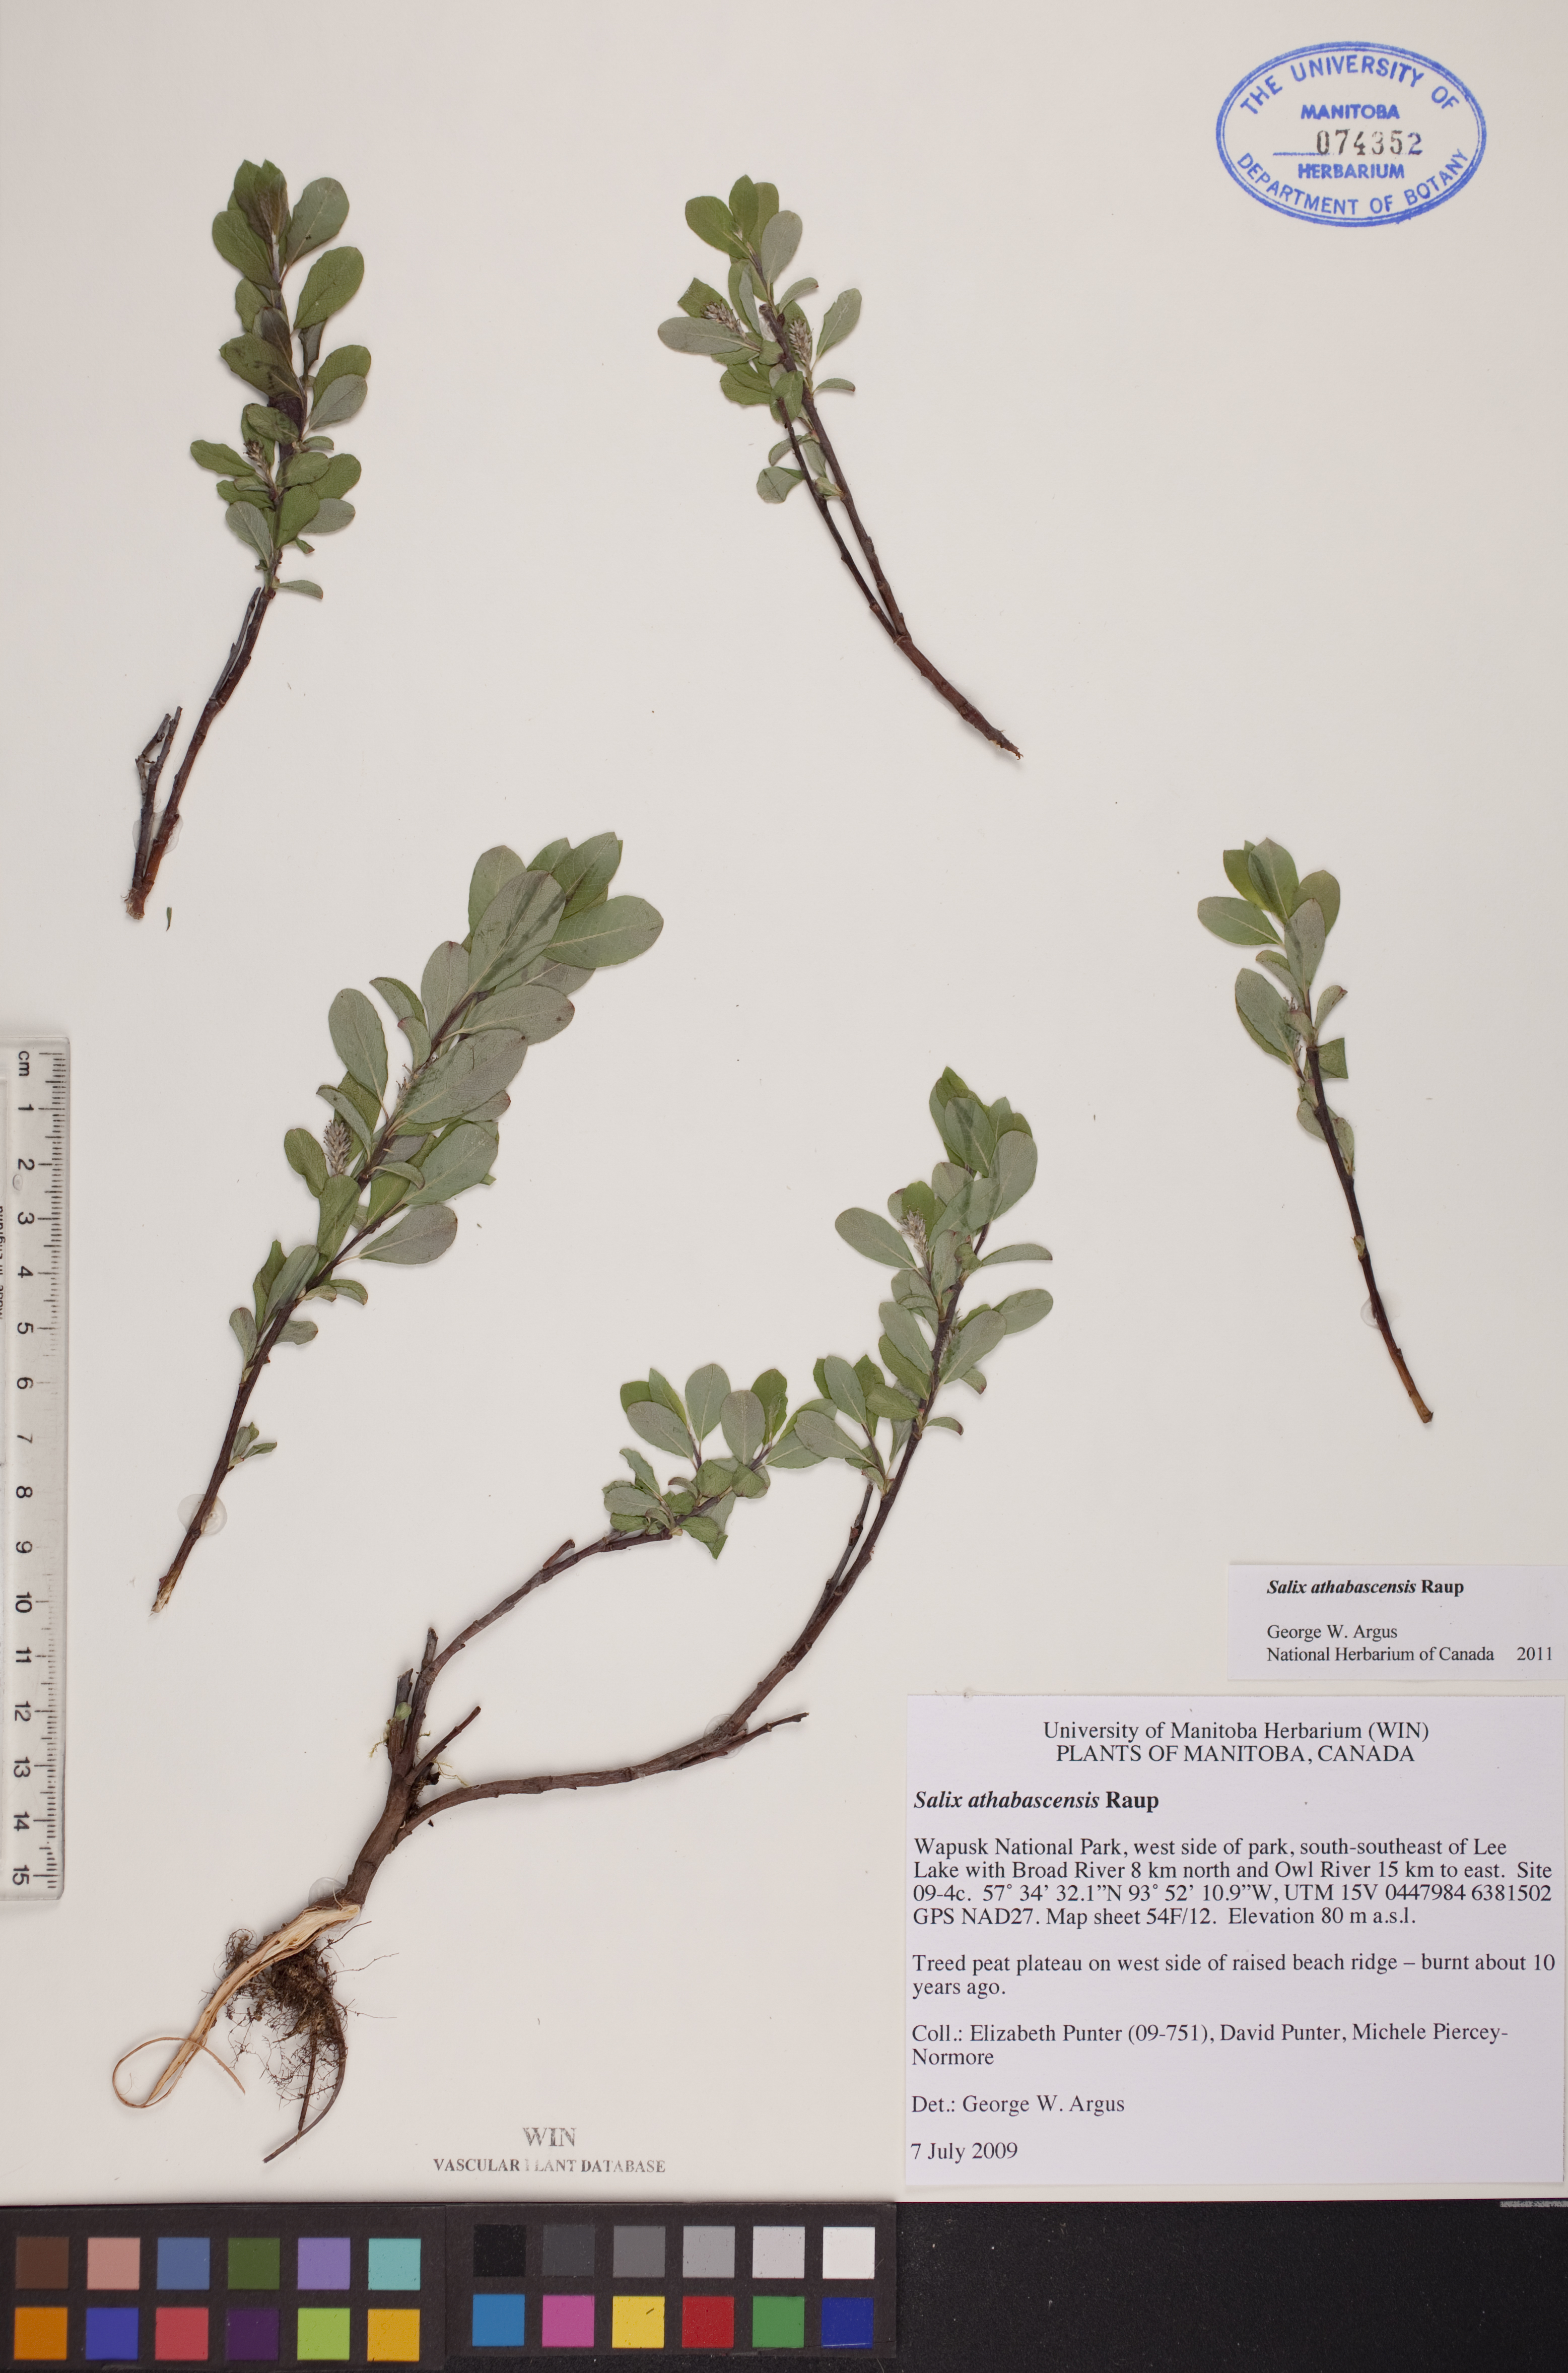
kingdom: Plantae
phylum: Tracheophyta
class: Magnoliopsida
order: Malpighiales
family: Salicaceae
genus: Salix
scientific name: Salix athabascensis
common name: Athabasca willow
